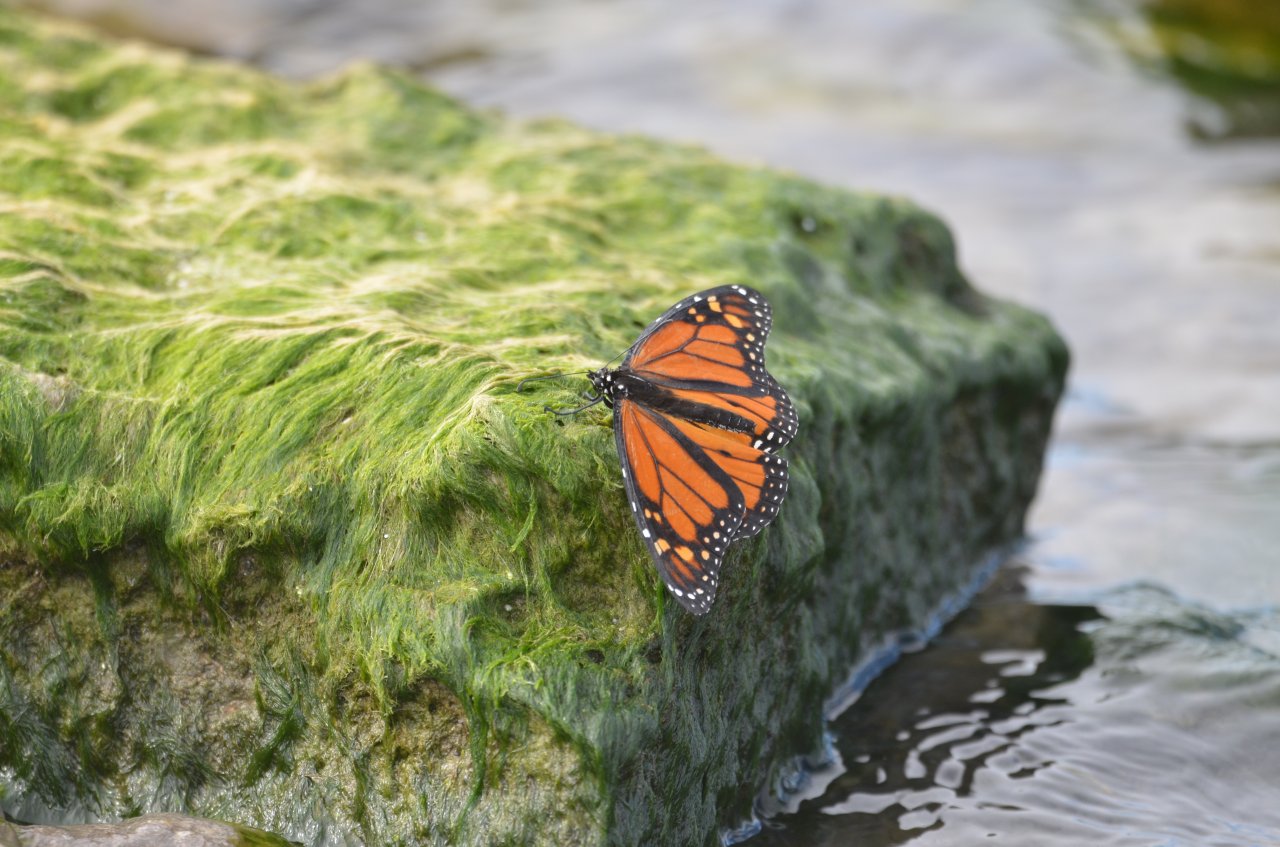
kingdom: Animalia
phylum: Arthropoda
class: Insecta
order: Lepidoptera
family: Nymphalidae
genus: Danaus
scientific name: Danaus plexippus
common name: Monarch
